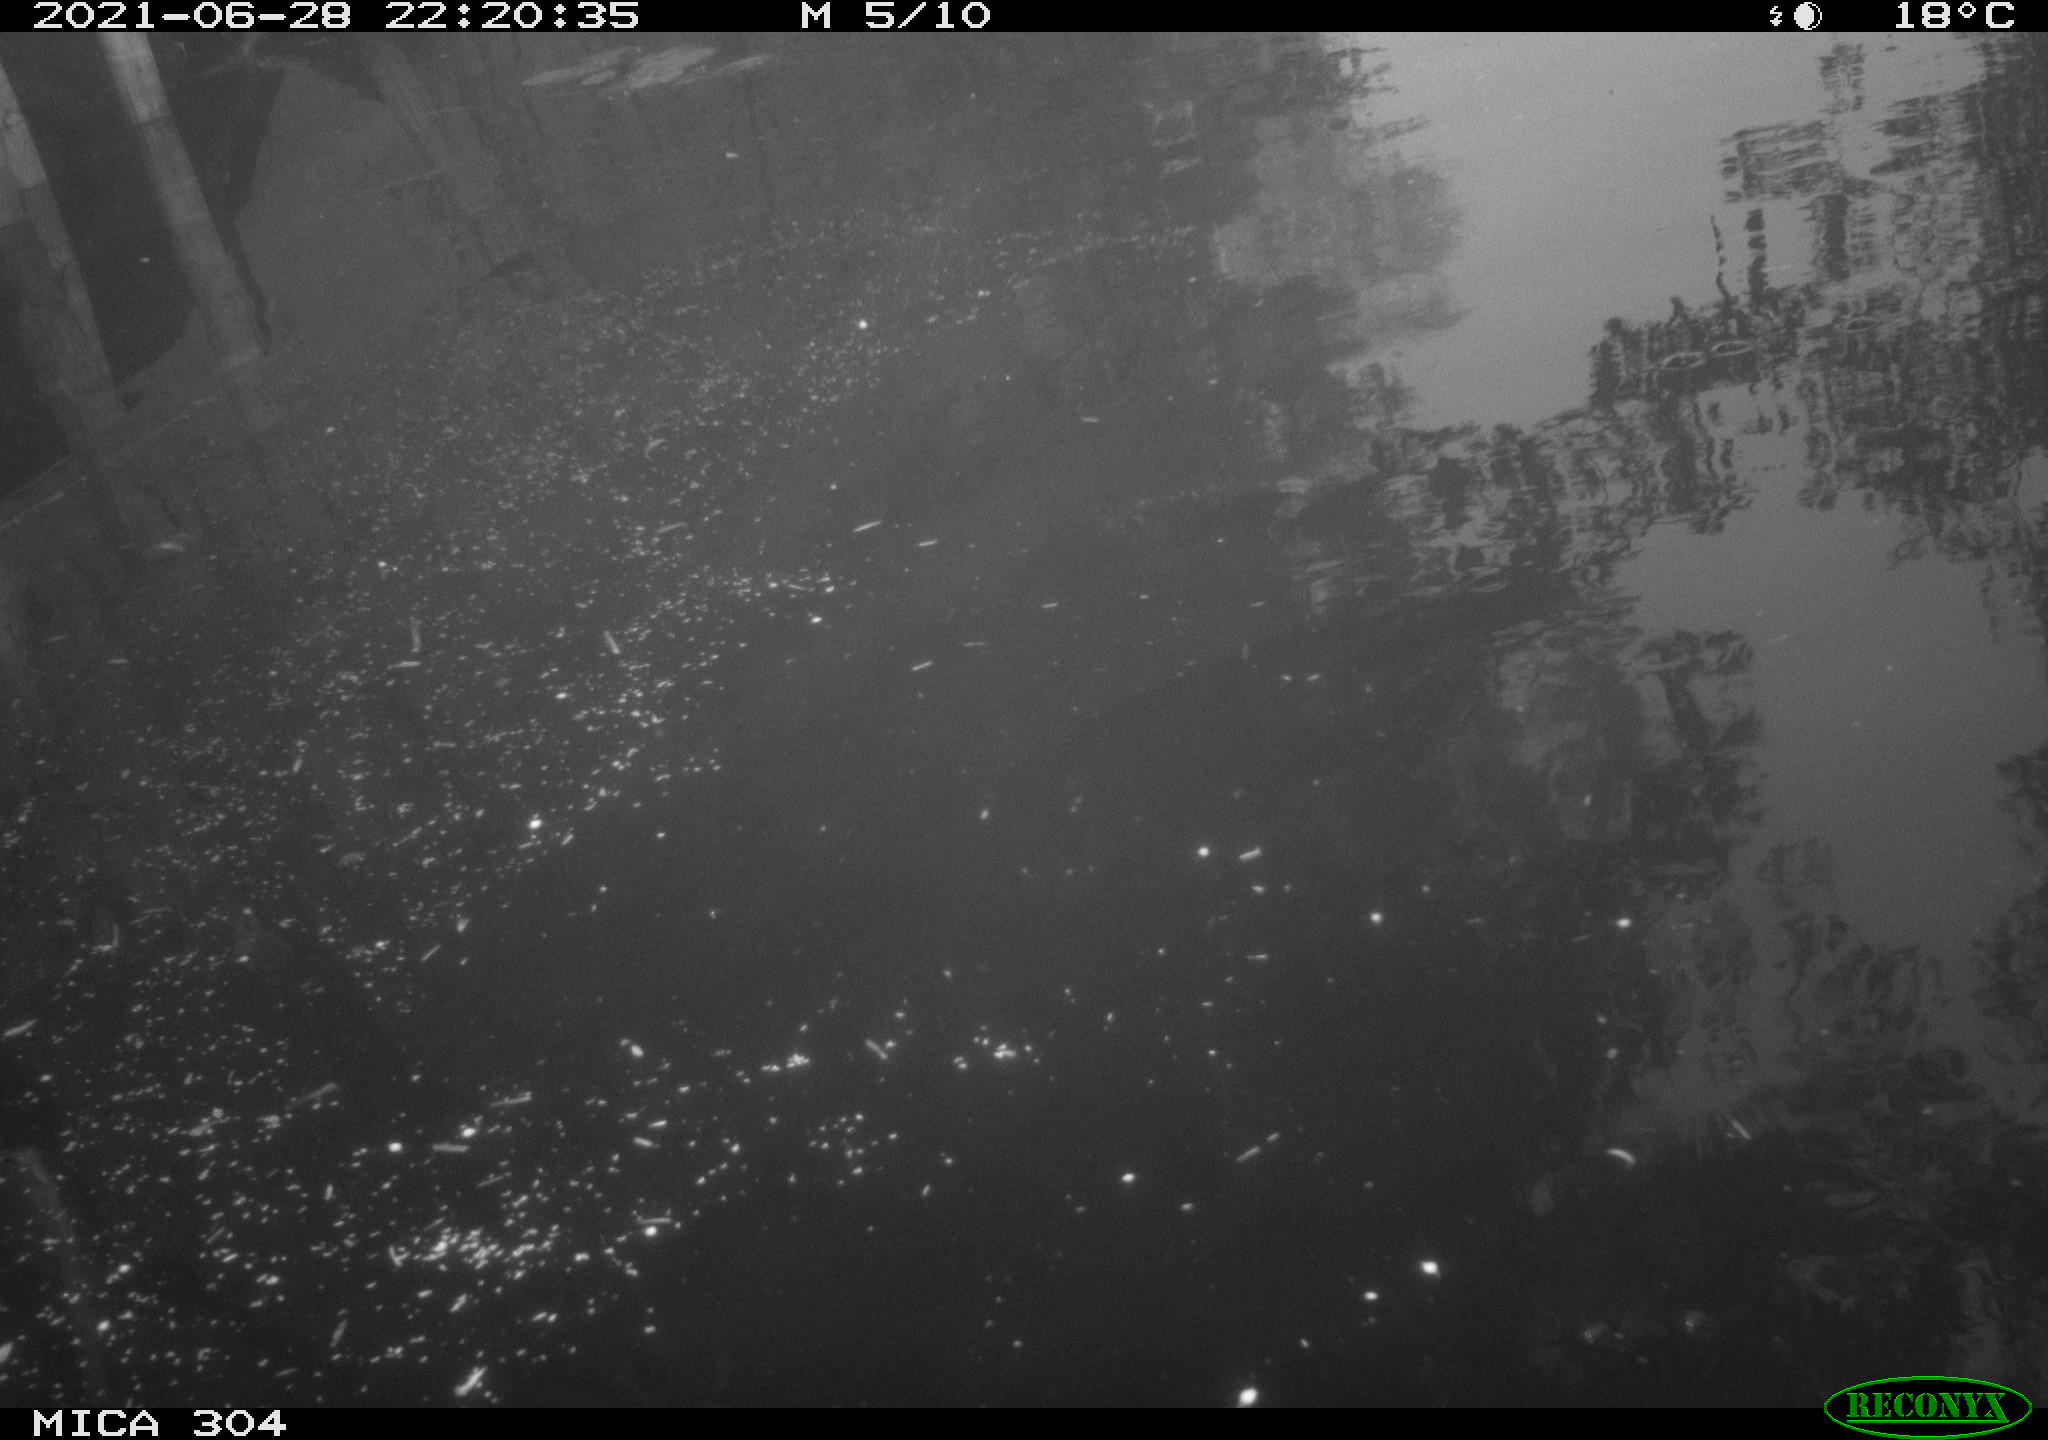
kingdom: Animalia
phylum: Chordata
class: Aves
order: Anseriformes
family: Anatidae
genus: Anas
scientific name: Anas platyrhynchos
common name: Mallard
